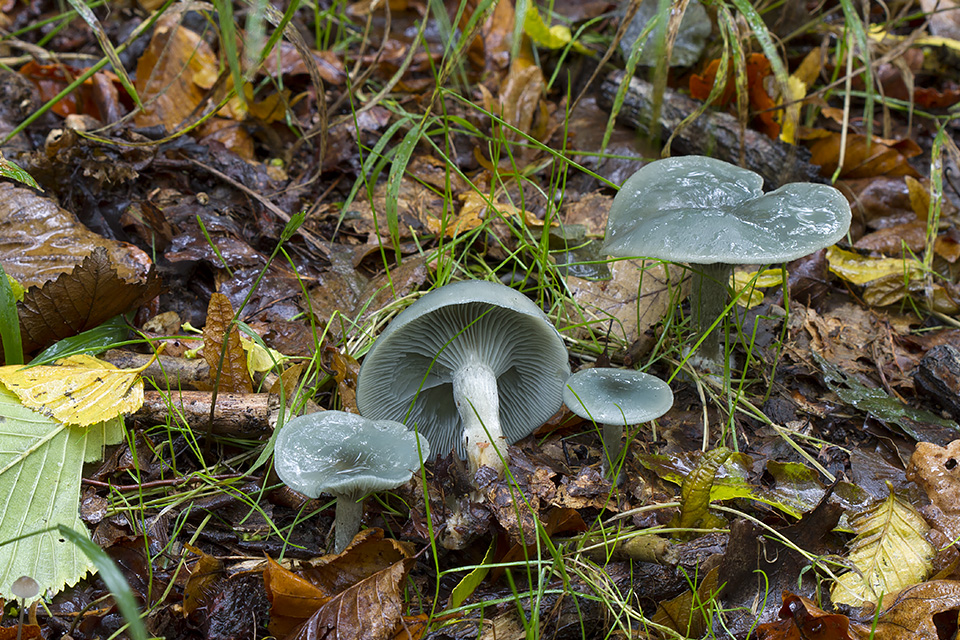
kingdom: Fungi
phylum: Basidiomycota
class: Agaricomycetes
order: Agaricales
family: Tricholomataceae
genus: Clitocybe
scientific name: Clitocybe odora
